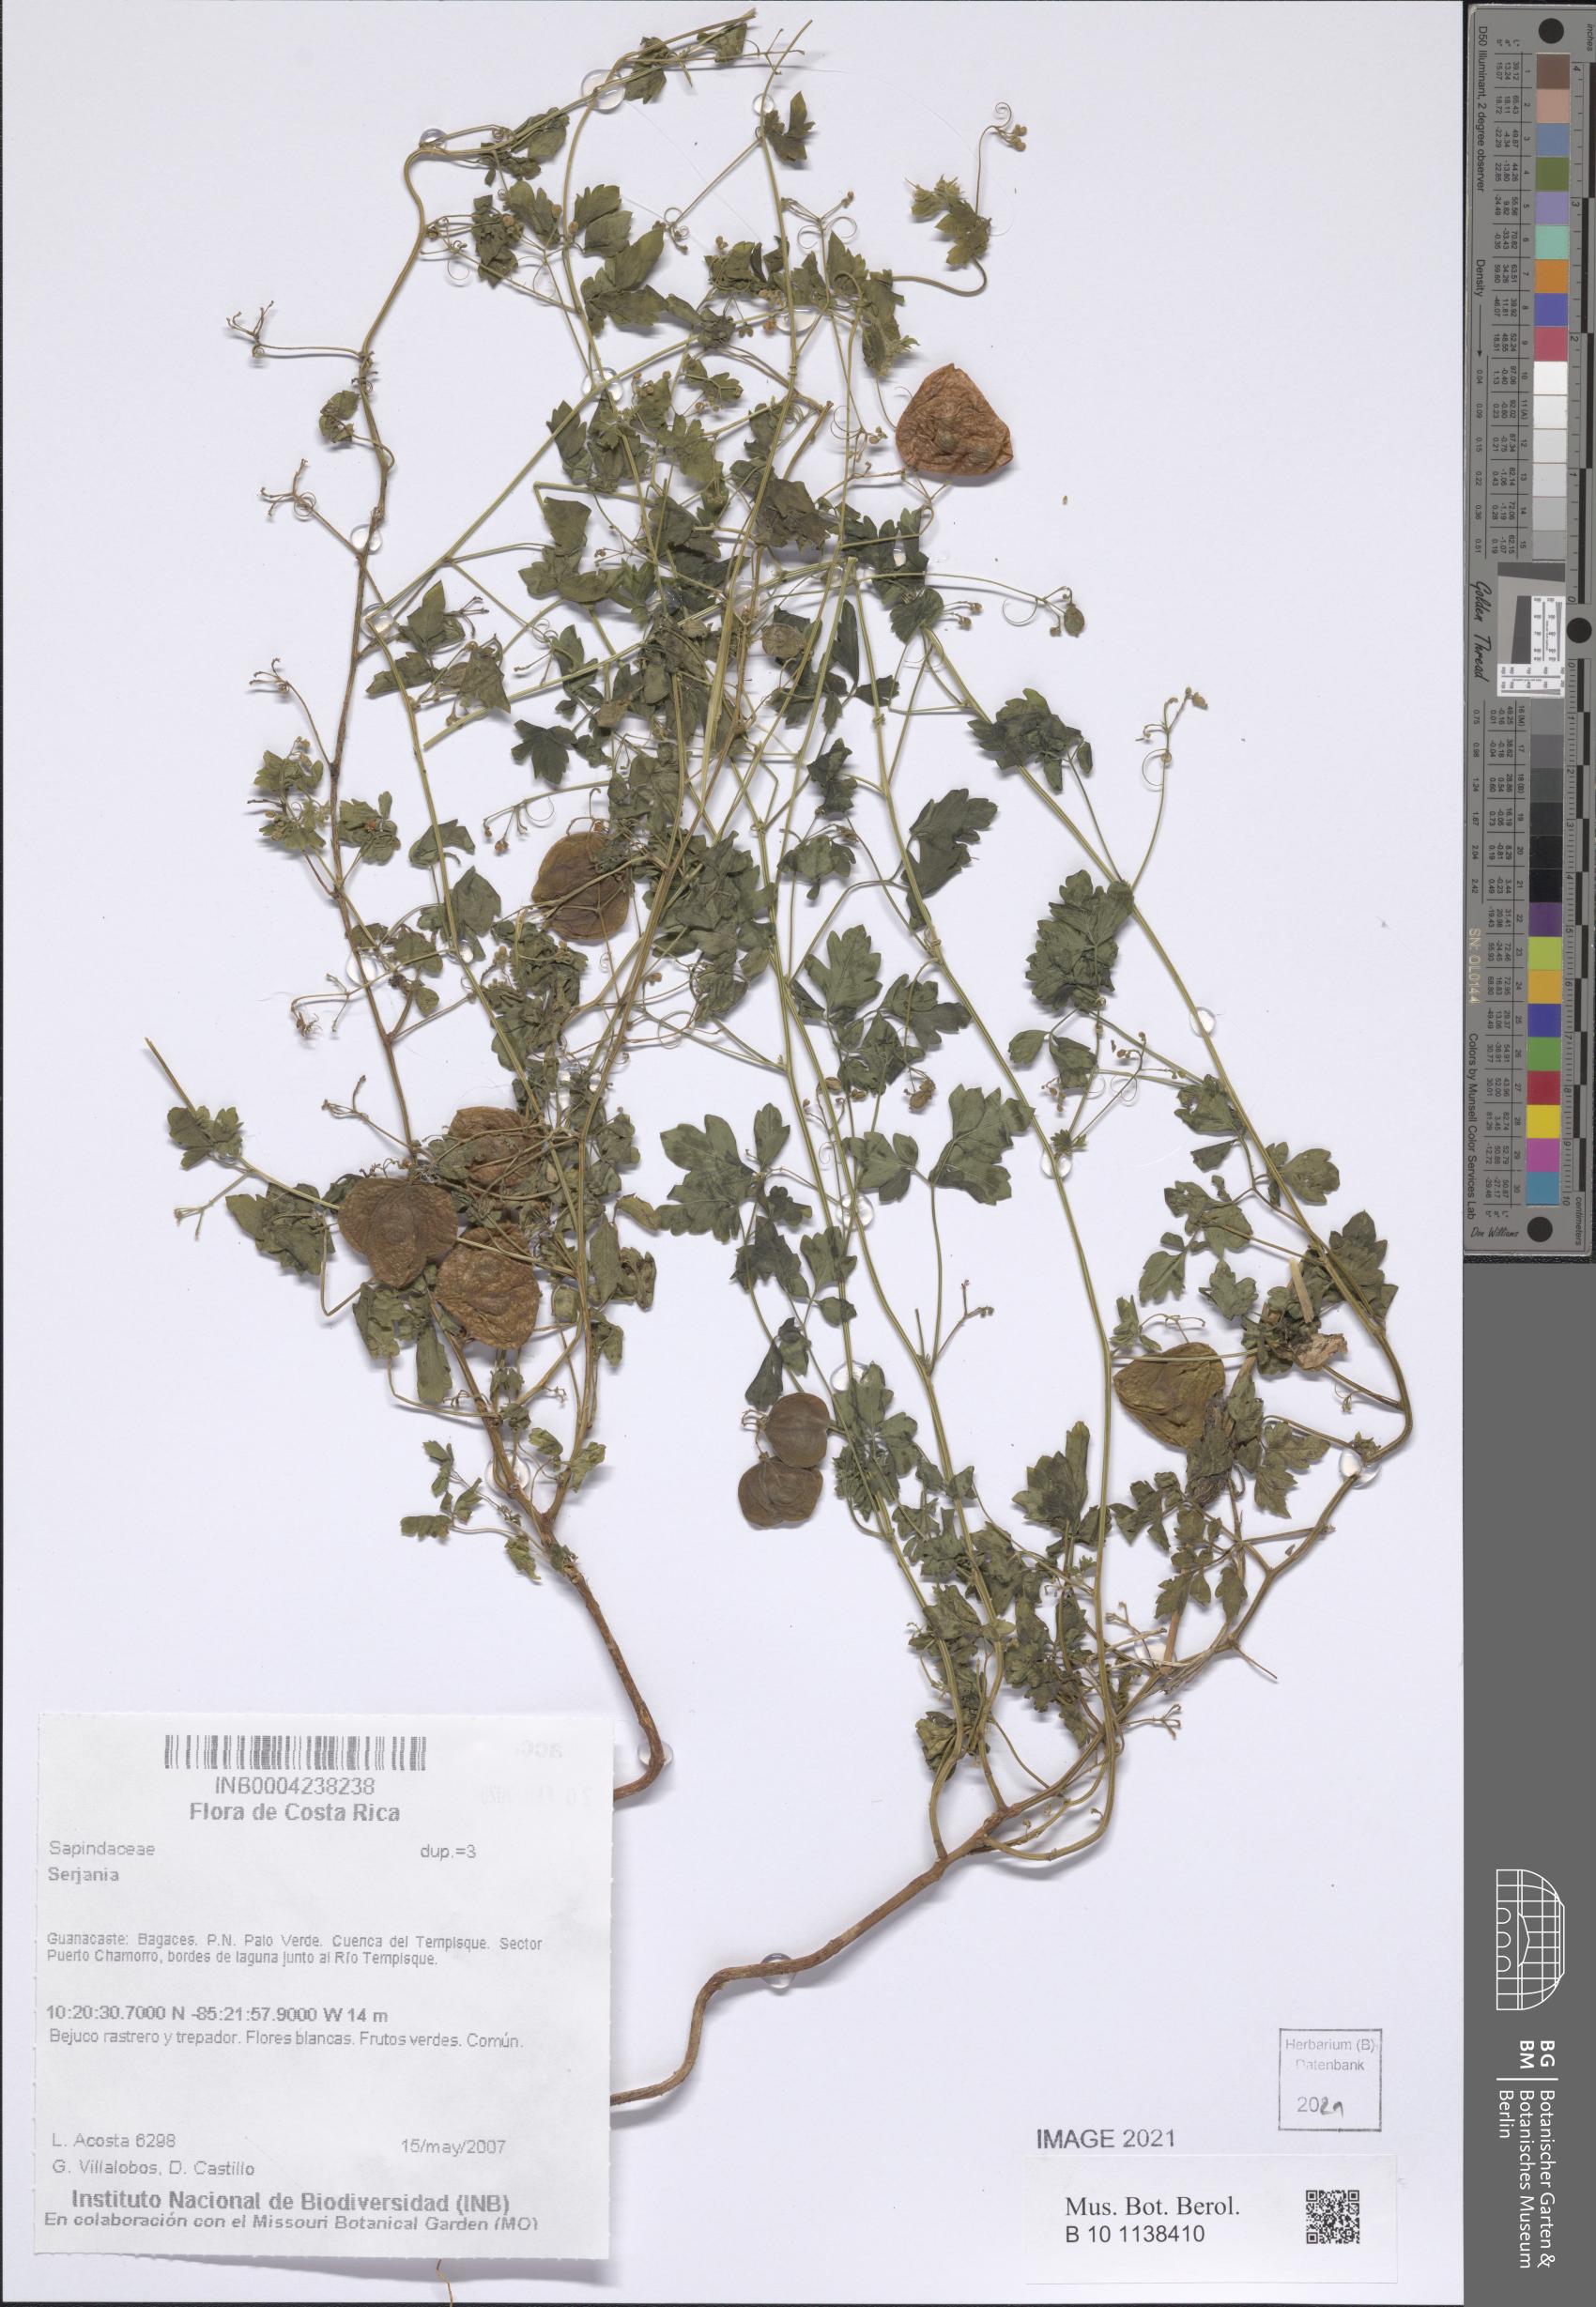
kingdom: Plantae
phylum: Tracheophyta
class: Magnoliopsida
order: Sapindales
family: Sapindaceae
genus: Serjania
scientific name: Serjania
